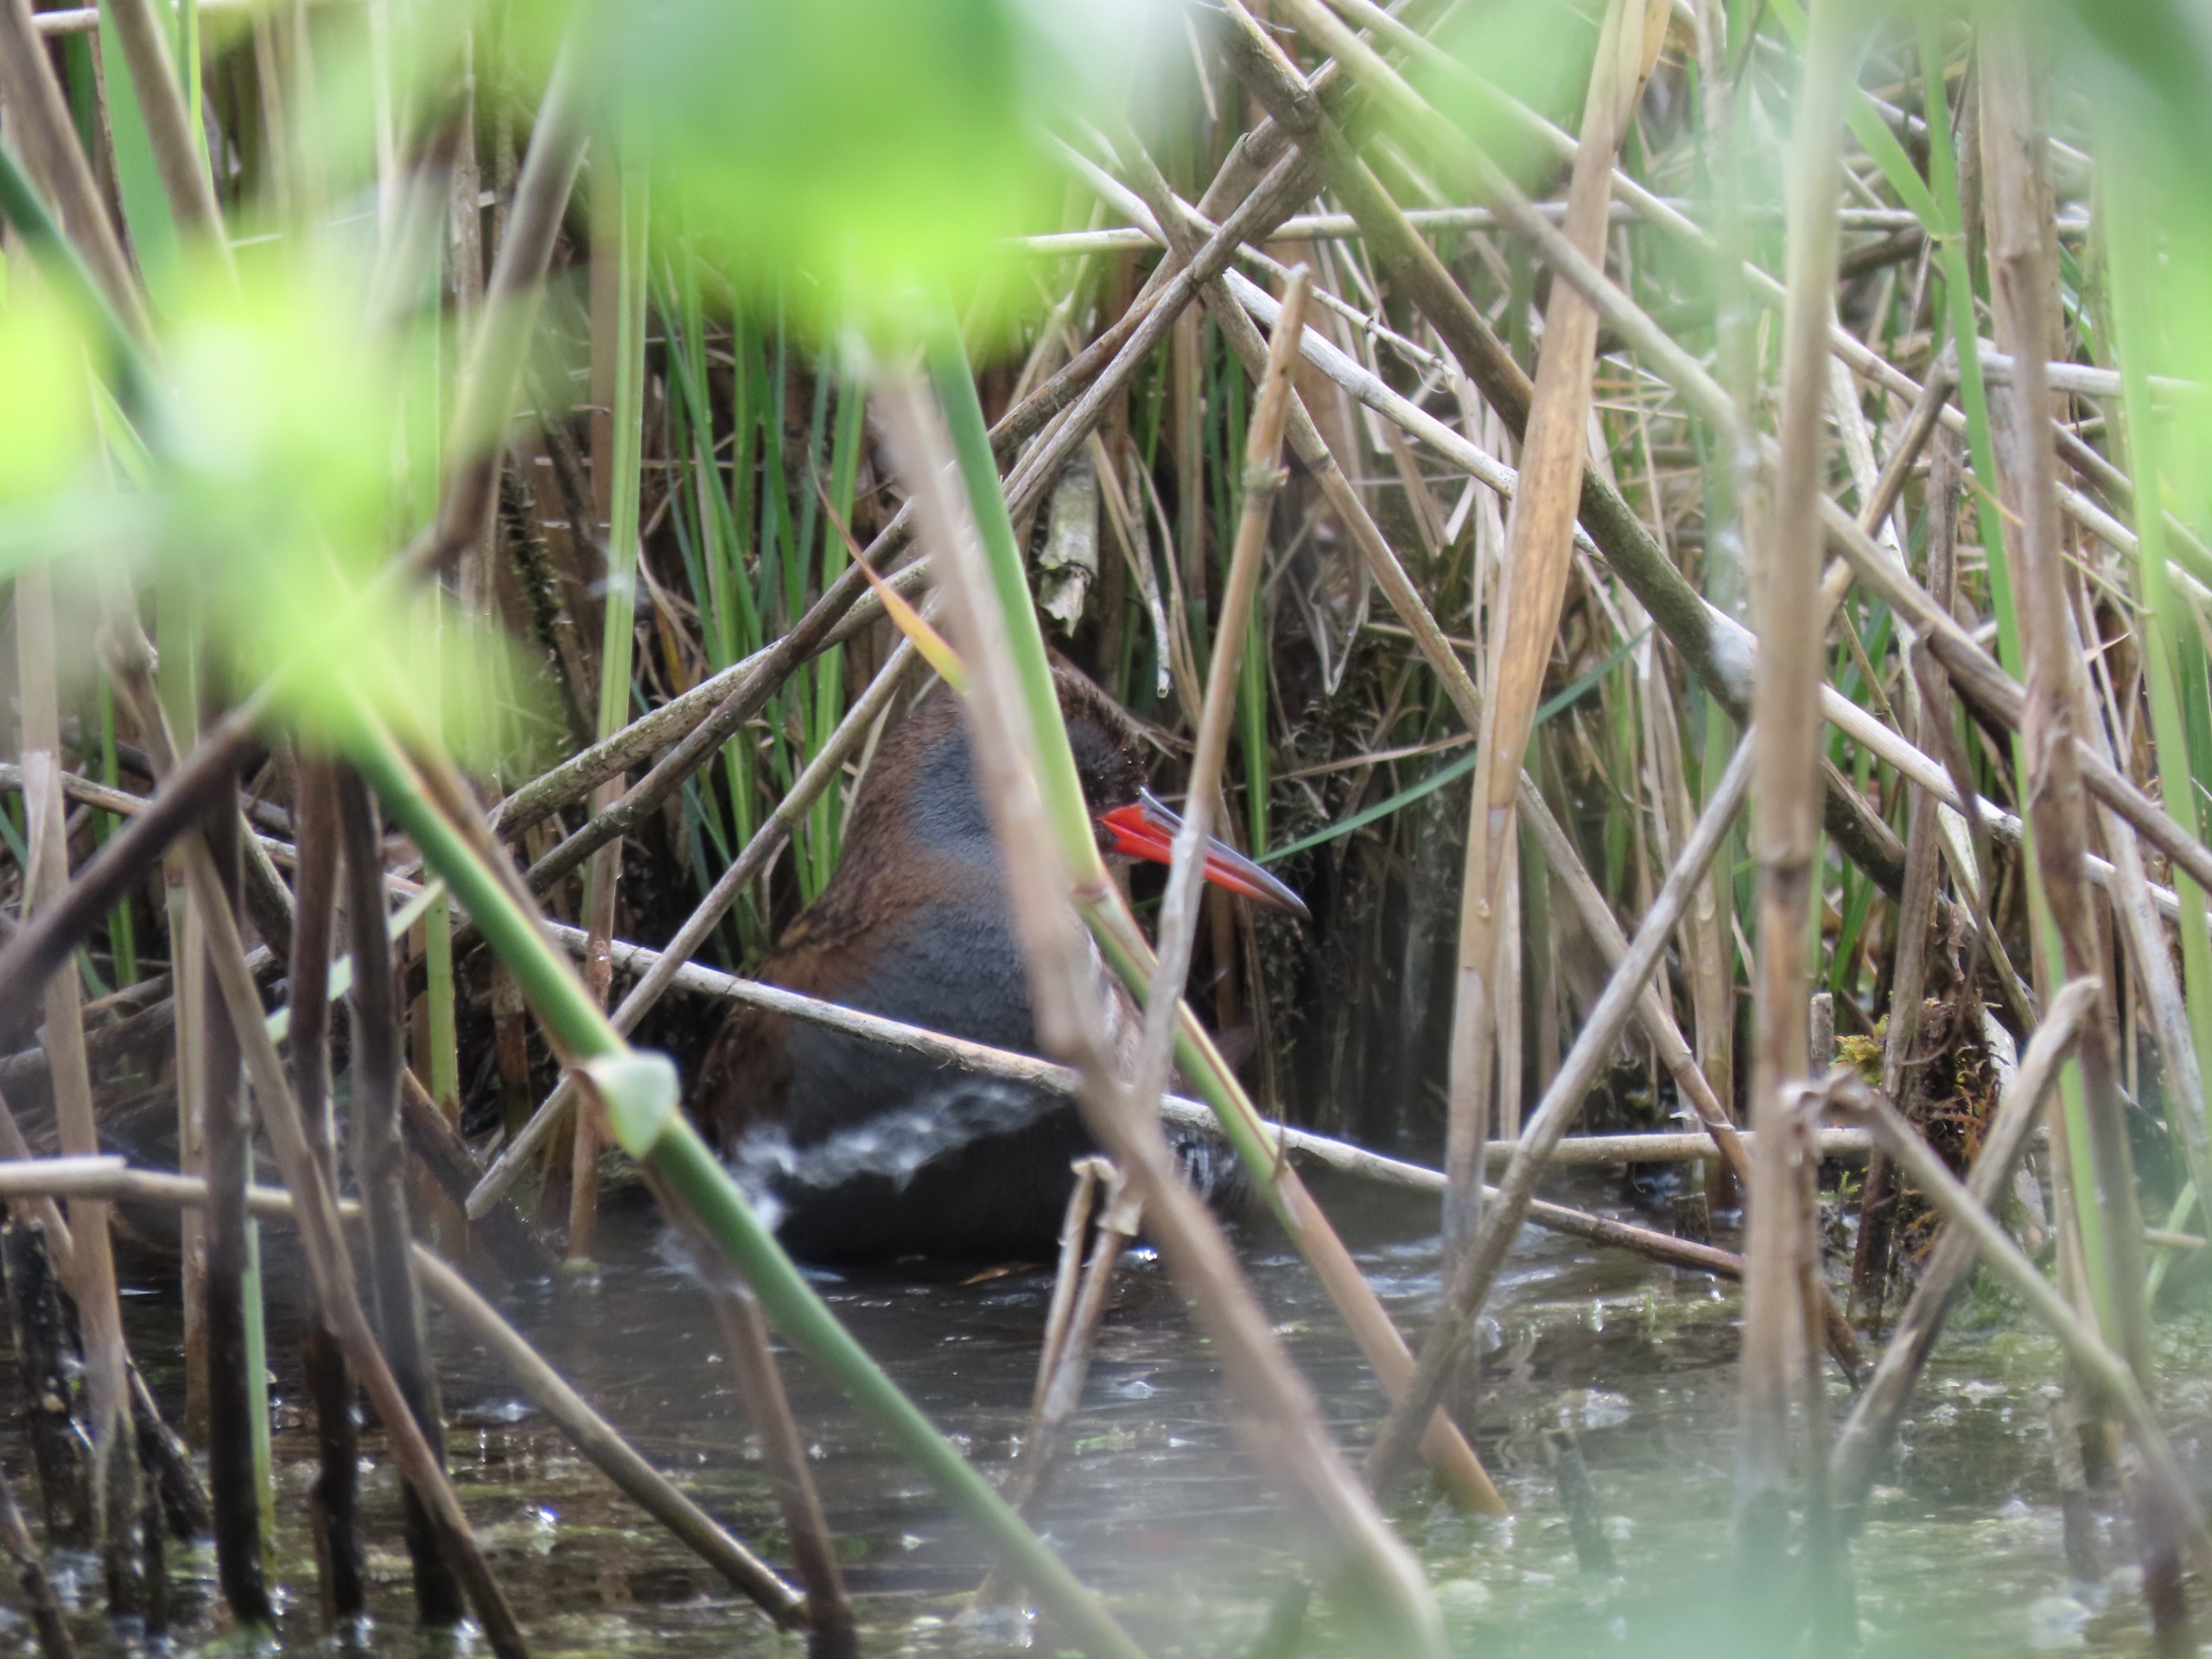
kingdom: Animalia
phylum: Chordata
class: Aves
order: Gruiformes
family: Rallidae
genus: Rallus
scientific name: Rallus aquaticus
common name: Vandrikse
